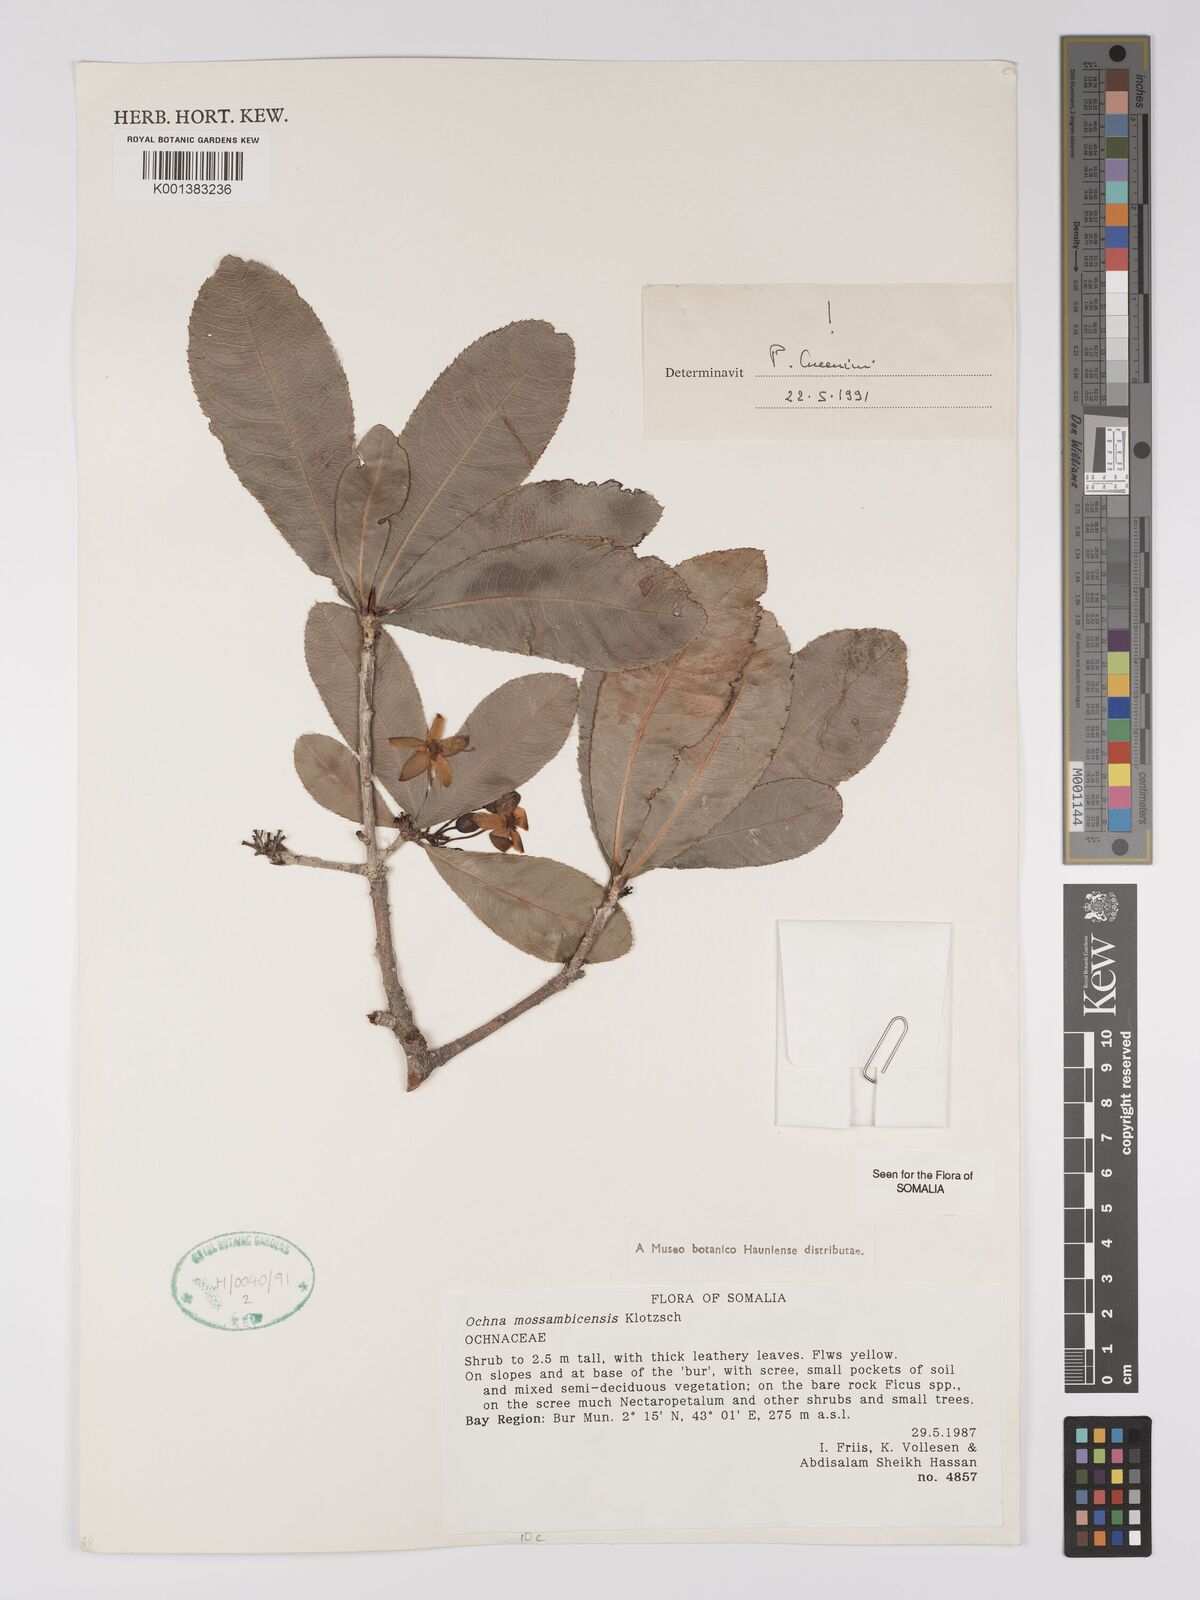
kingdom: Plantae
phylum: Tracheophyta
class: Magnoliopsida
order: Malpighiales
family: Ochnaceae
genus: Ochna
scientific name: Ochna atropurpurea
